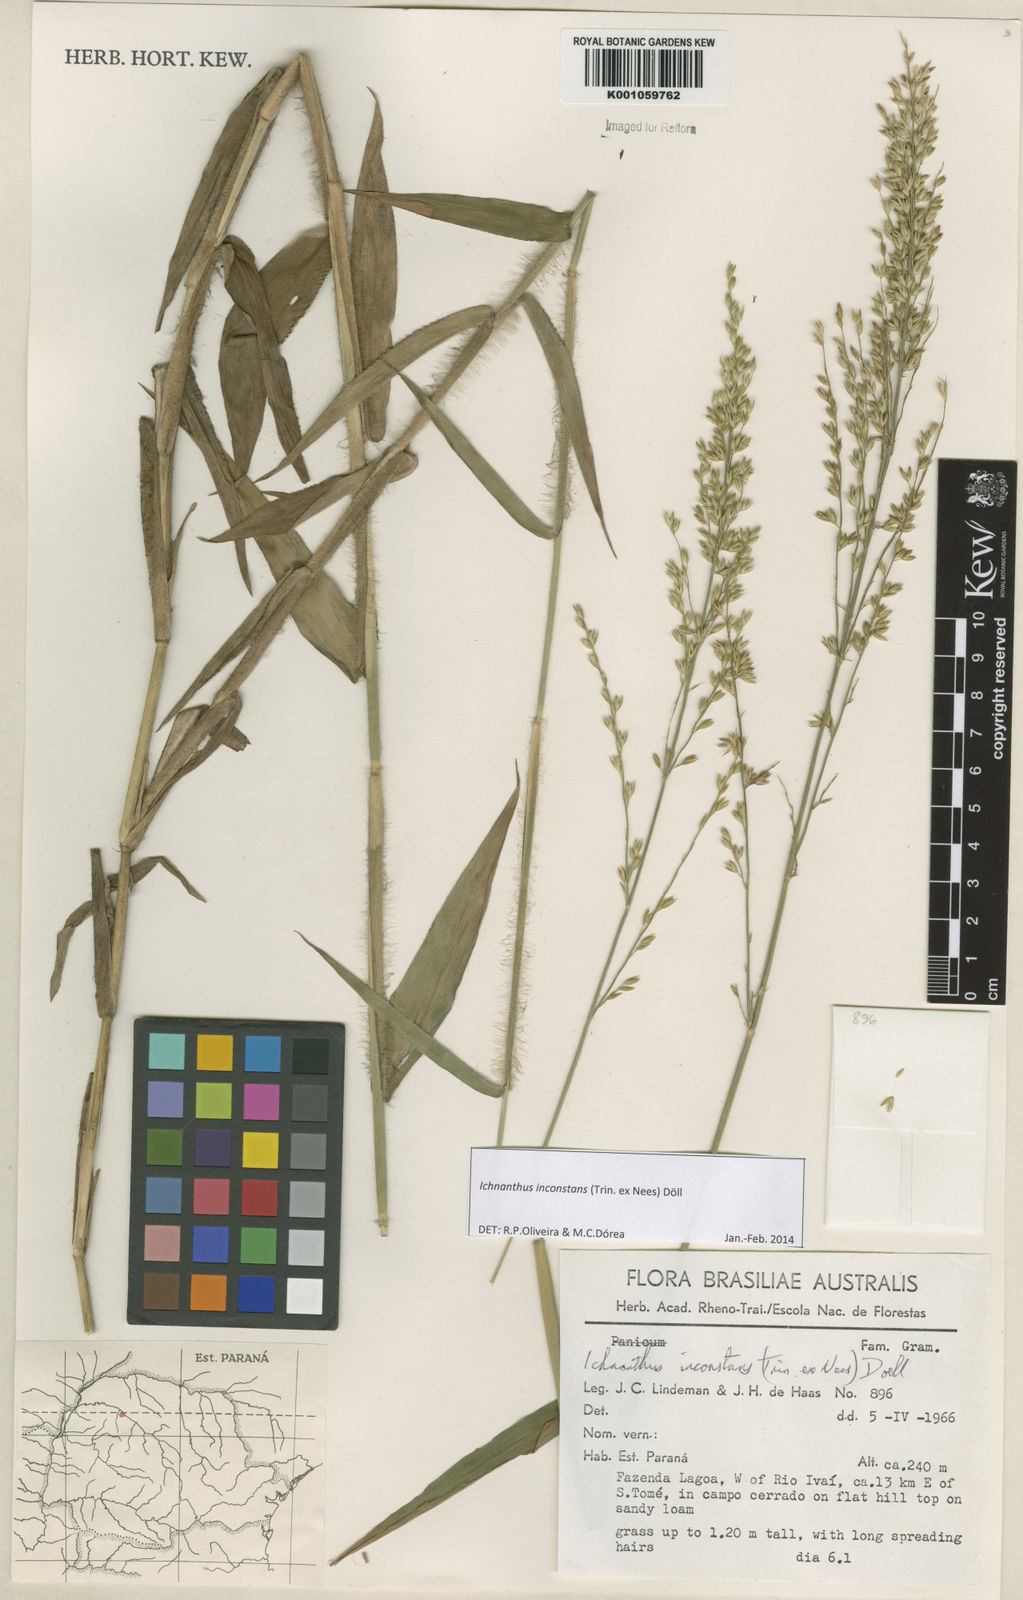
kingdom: Plantae
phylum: Tracheophyta
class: Liliopsida
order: Poales
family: Poaceae
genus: Ichnanthus
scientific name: Ichnanthus
